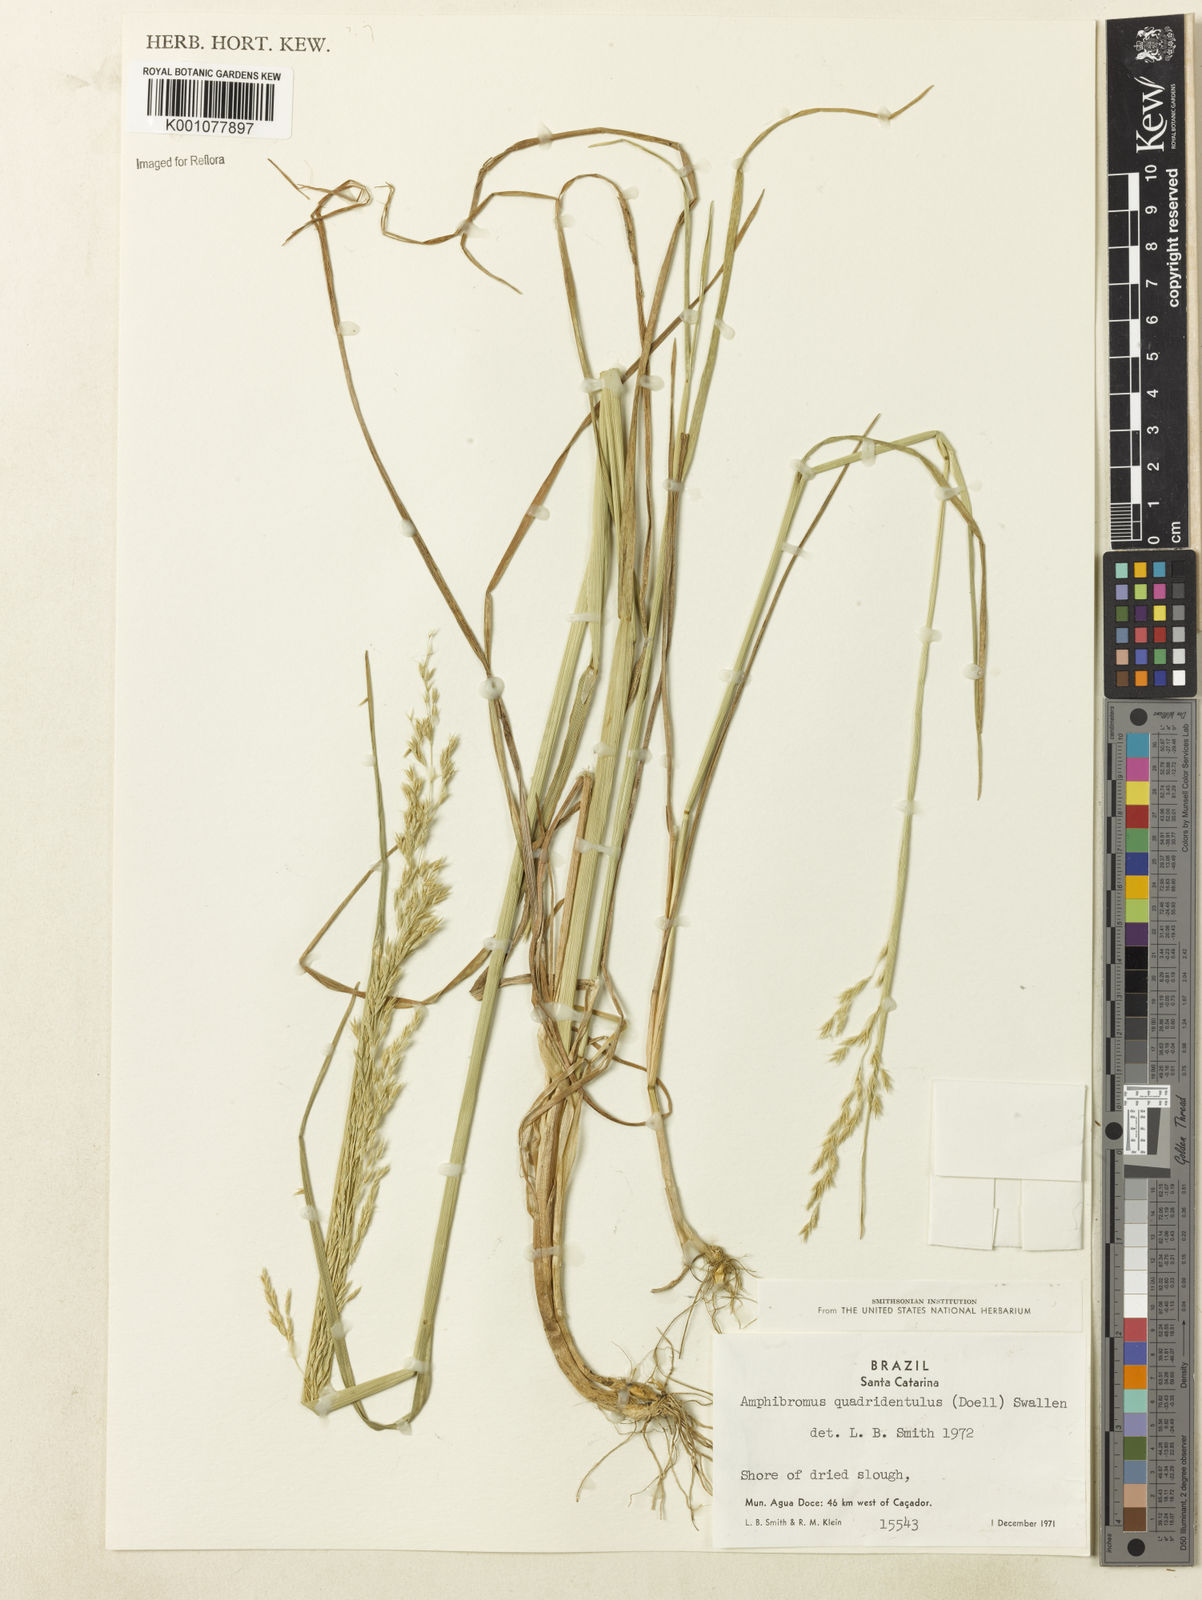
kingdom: Plantae
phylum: Tracheophyta
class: Liliopsida
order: Poales
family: Poaceae
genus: Helictotrichon
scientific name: Helictotrichon
